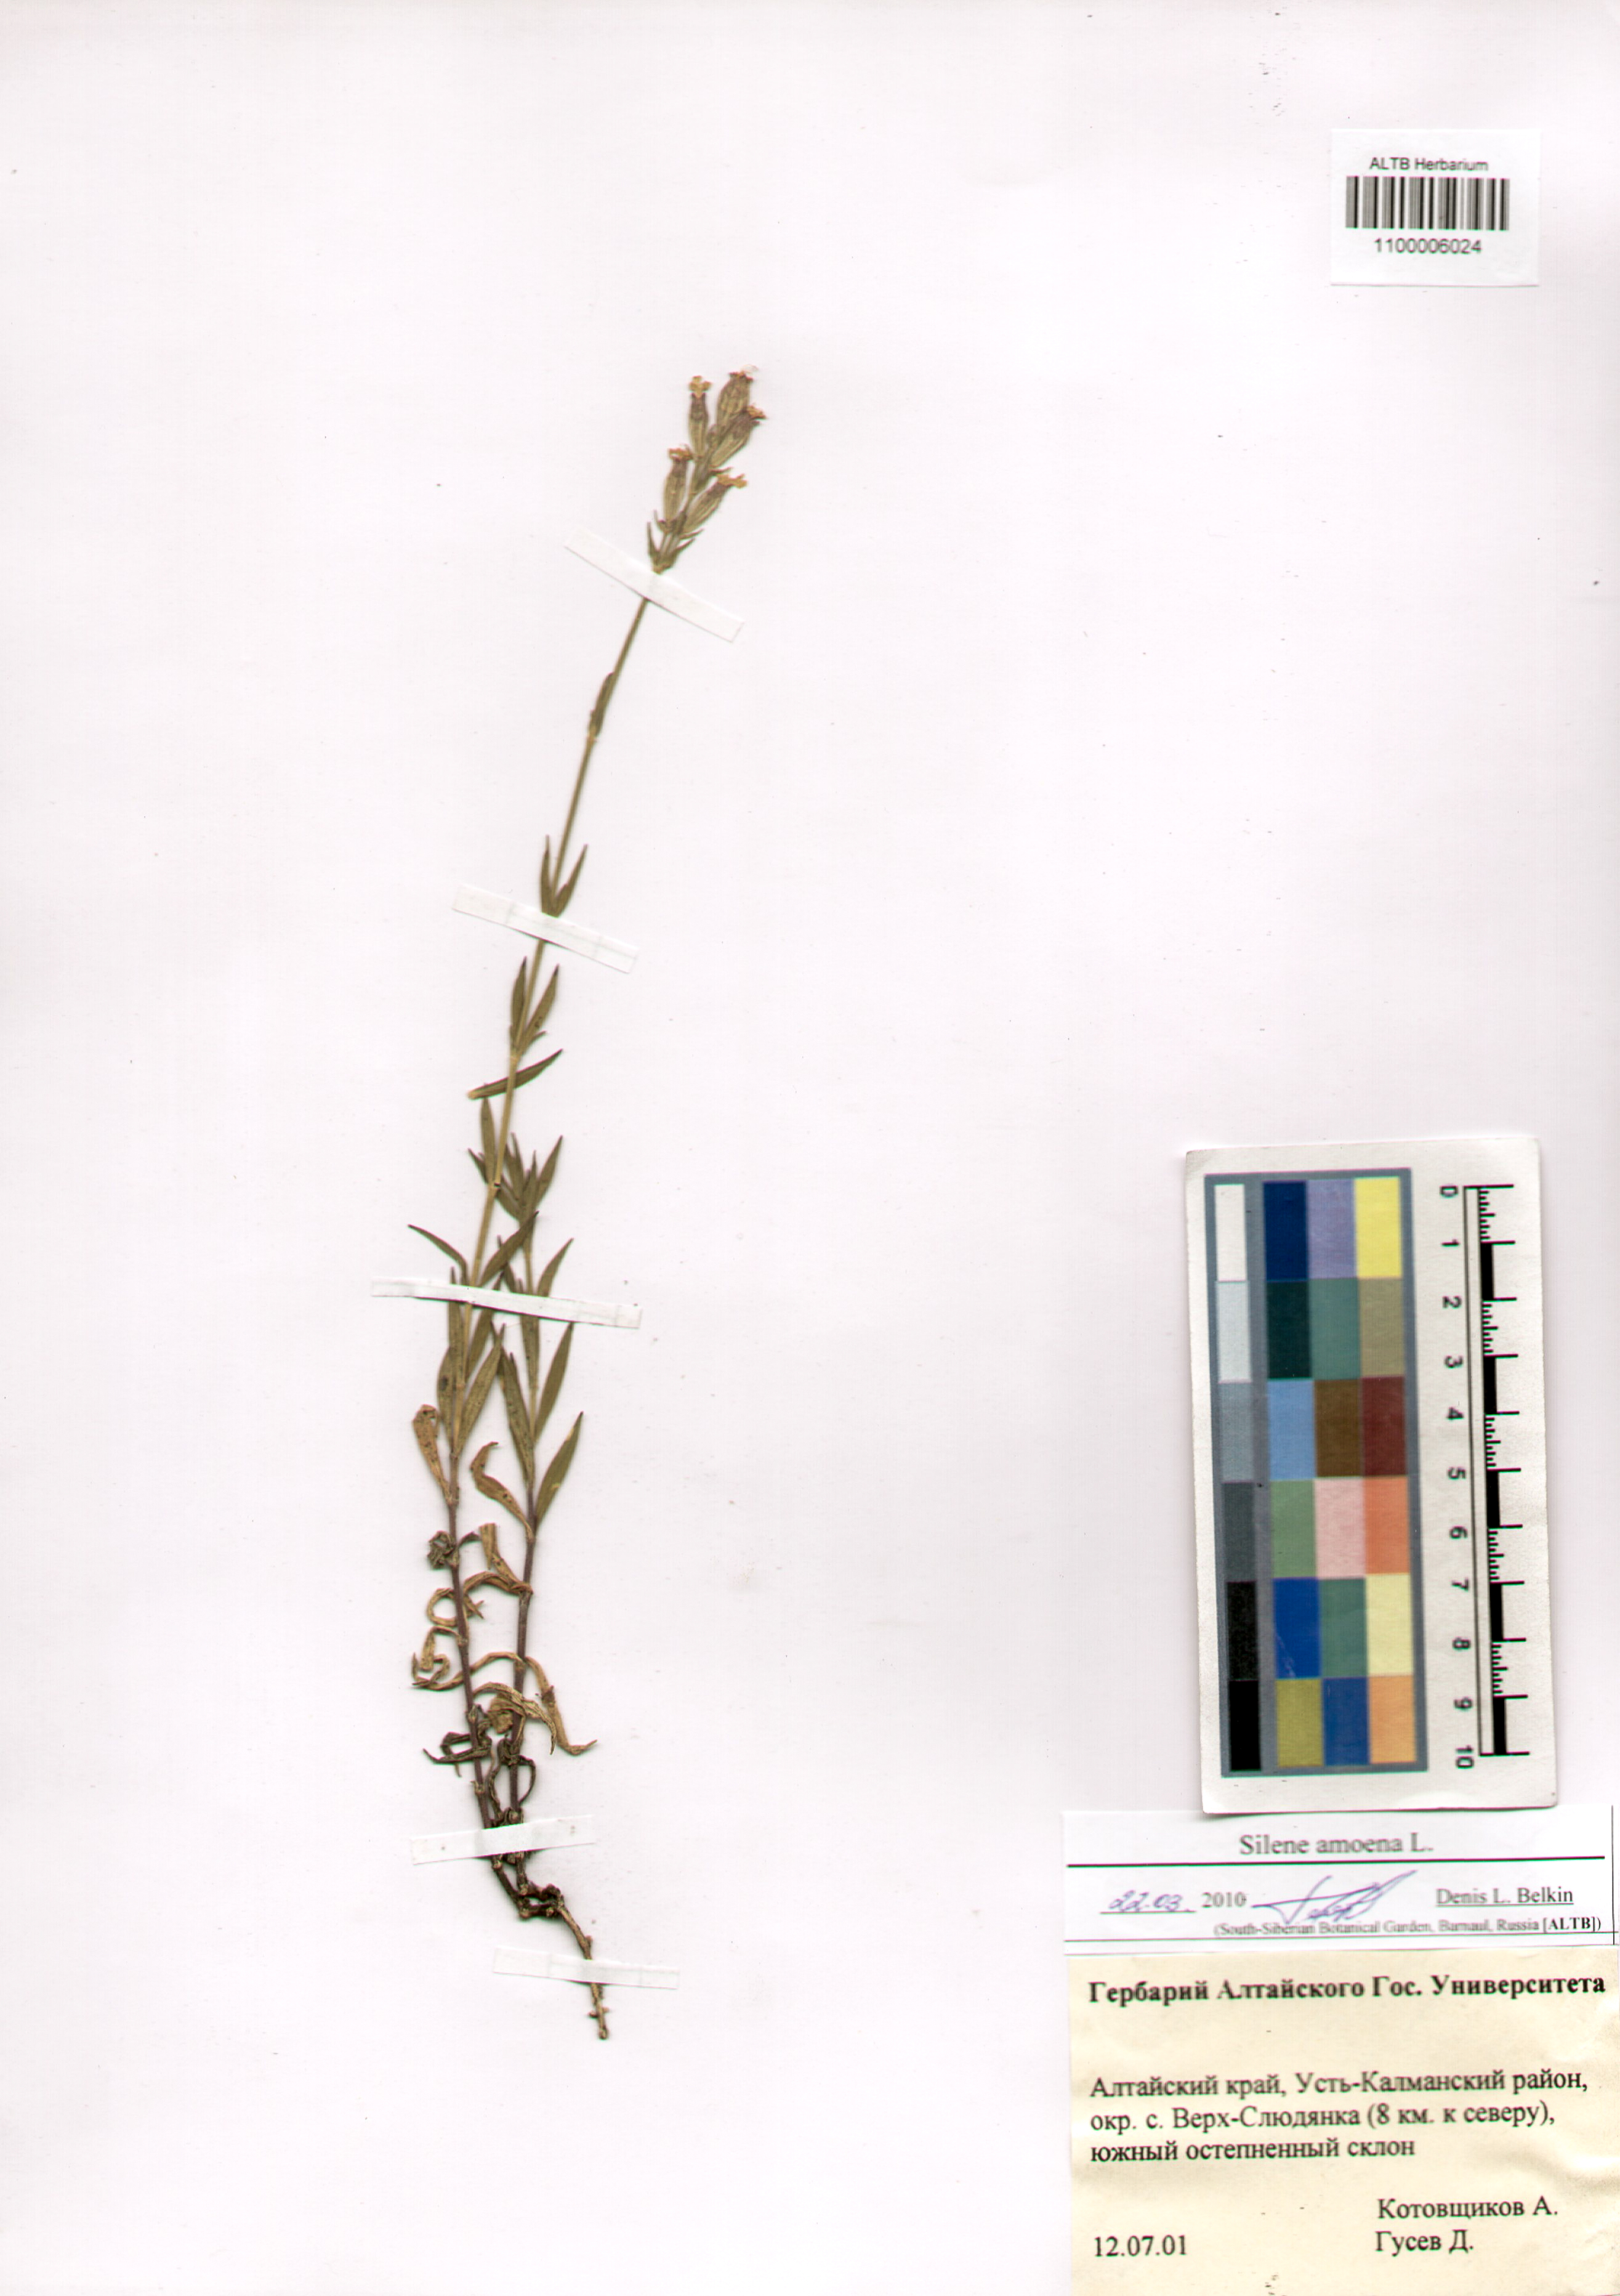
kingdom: Plantae
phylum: Tracheophyta
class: Magnoliopsida
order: Caryophyllales
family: Caryophyllaceae
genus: Silene
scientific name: Silene amoena
